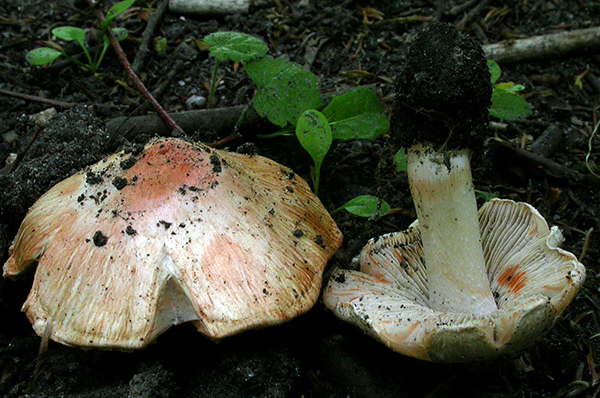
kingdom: Fungi
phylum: Basidiomycota
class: Agaricomycetes
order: Agaricales
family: Inocybaceae
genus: Inosperma
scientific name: Inosperma erubescens
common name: giftig trævlhat
